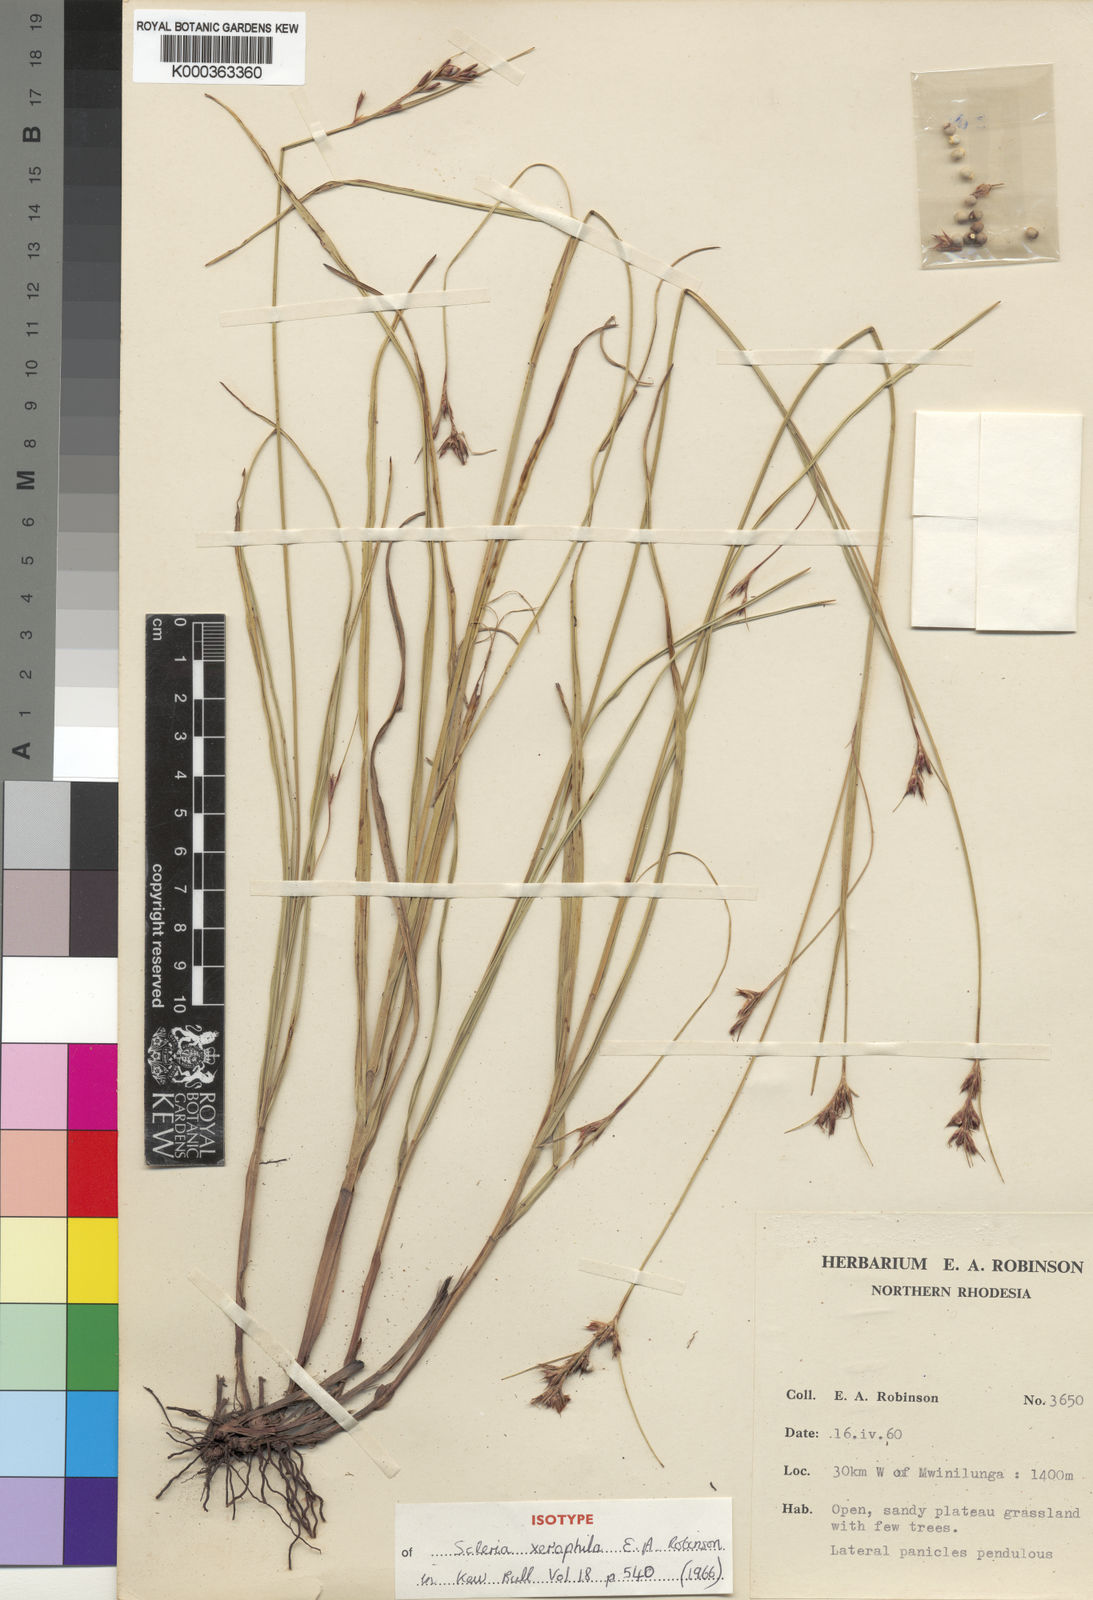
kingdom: Plantae
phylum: Tracheophyta
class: Liliopsida
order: Poales
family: Cyperaceae
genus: Scleria
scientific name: Scleria xerophila
